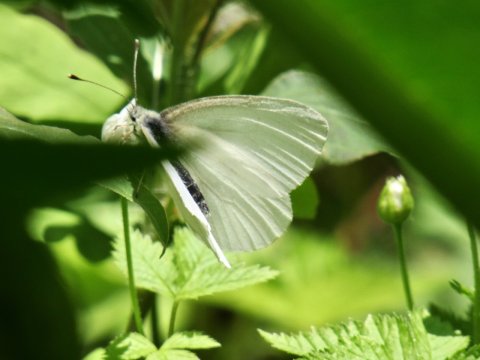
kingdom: Animalia
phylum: Arthropoda
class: Insecta
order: Lepidoptera
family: Pieridae
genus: Pieris
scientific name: Pieris virginiensis
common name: West Virginia White
